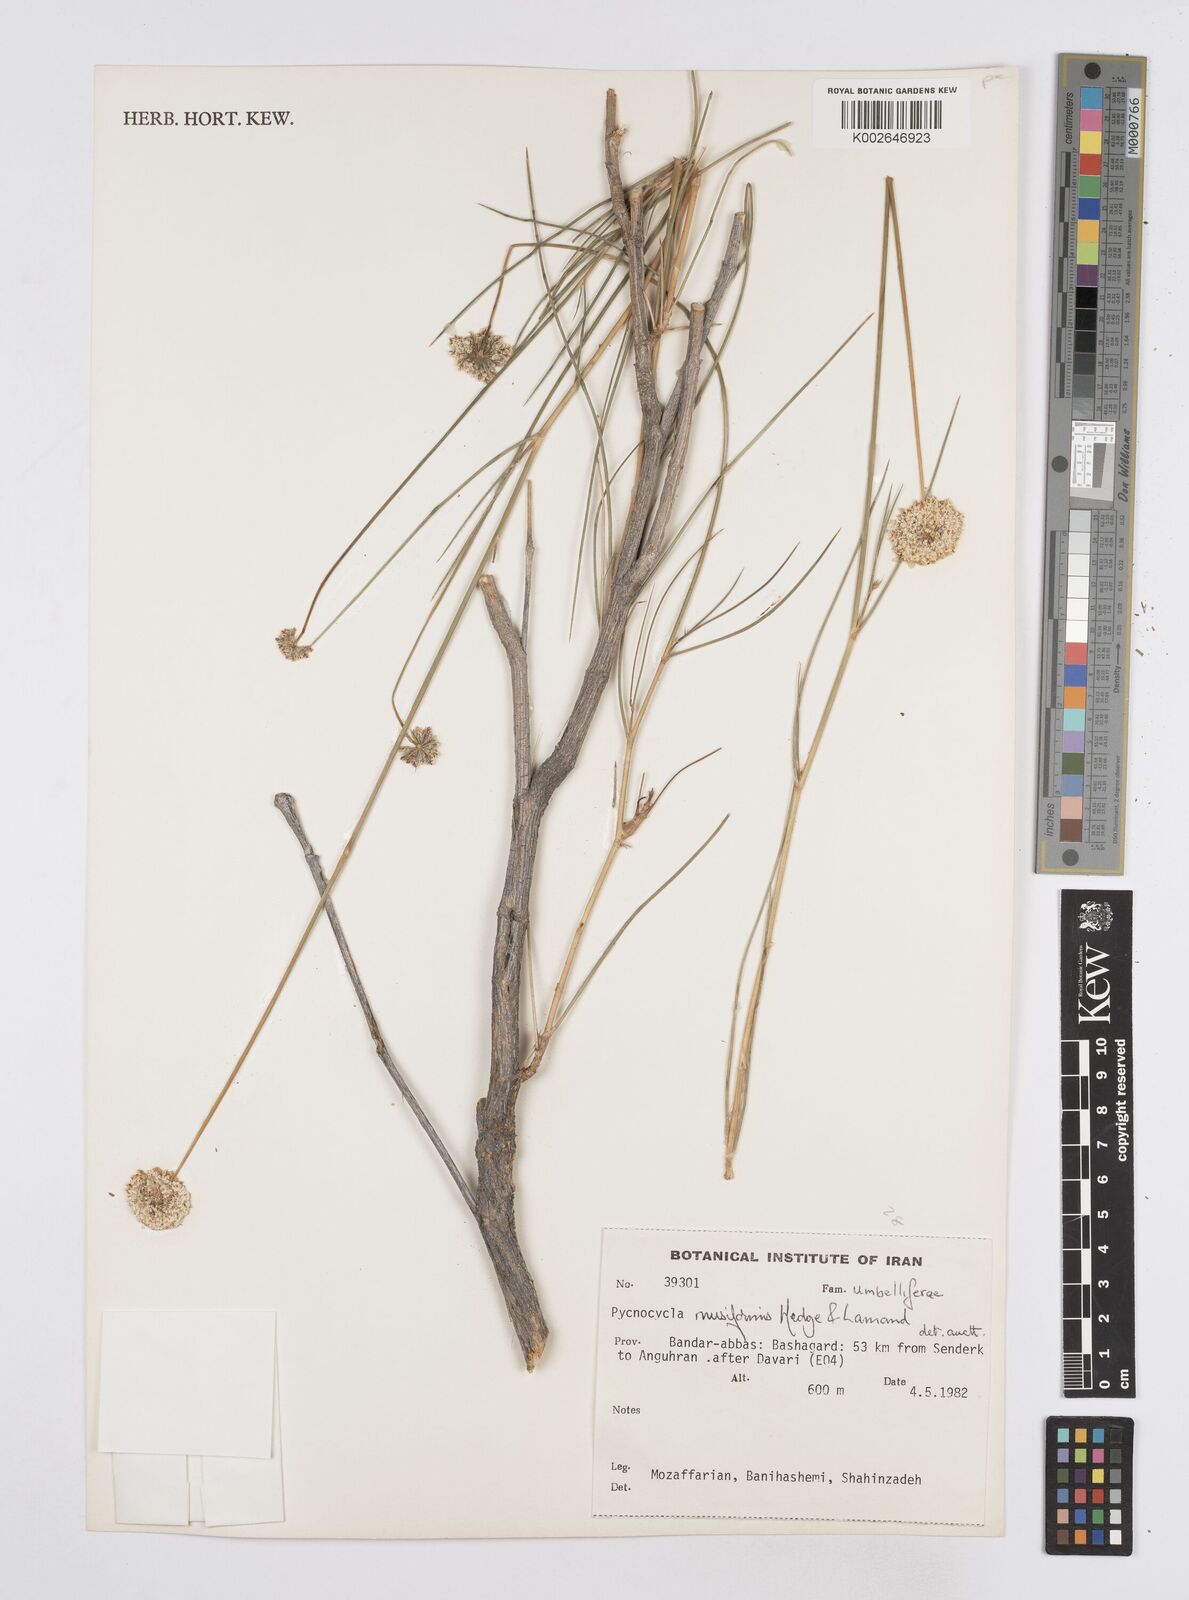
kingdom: Plantae
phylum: Tracheophyta
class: Magnoliopsida
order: Apiales
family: Apiaceae
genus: Pycnocycla
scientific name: Pycnocycla musiformis
